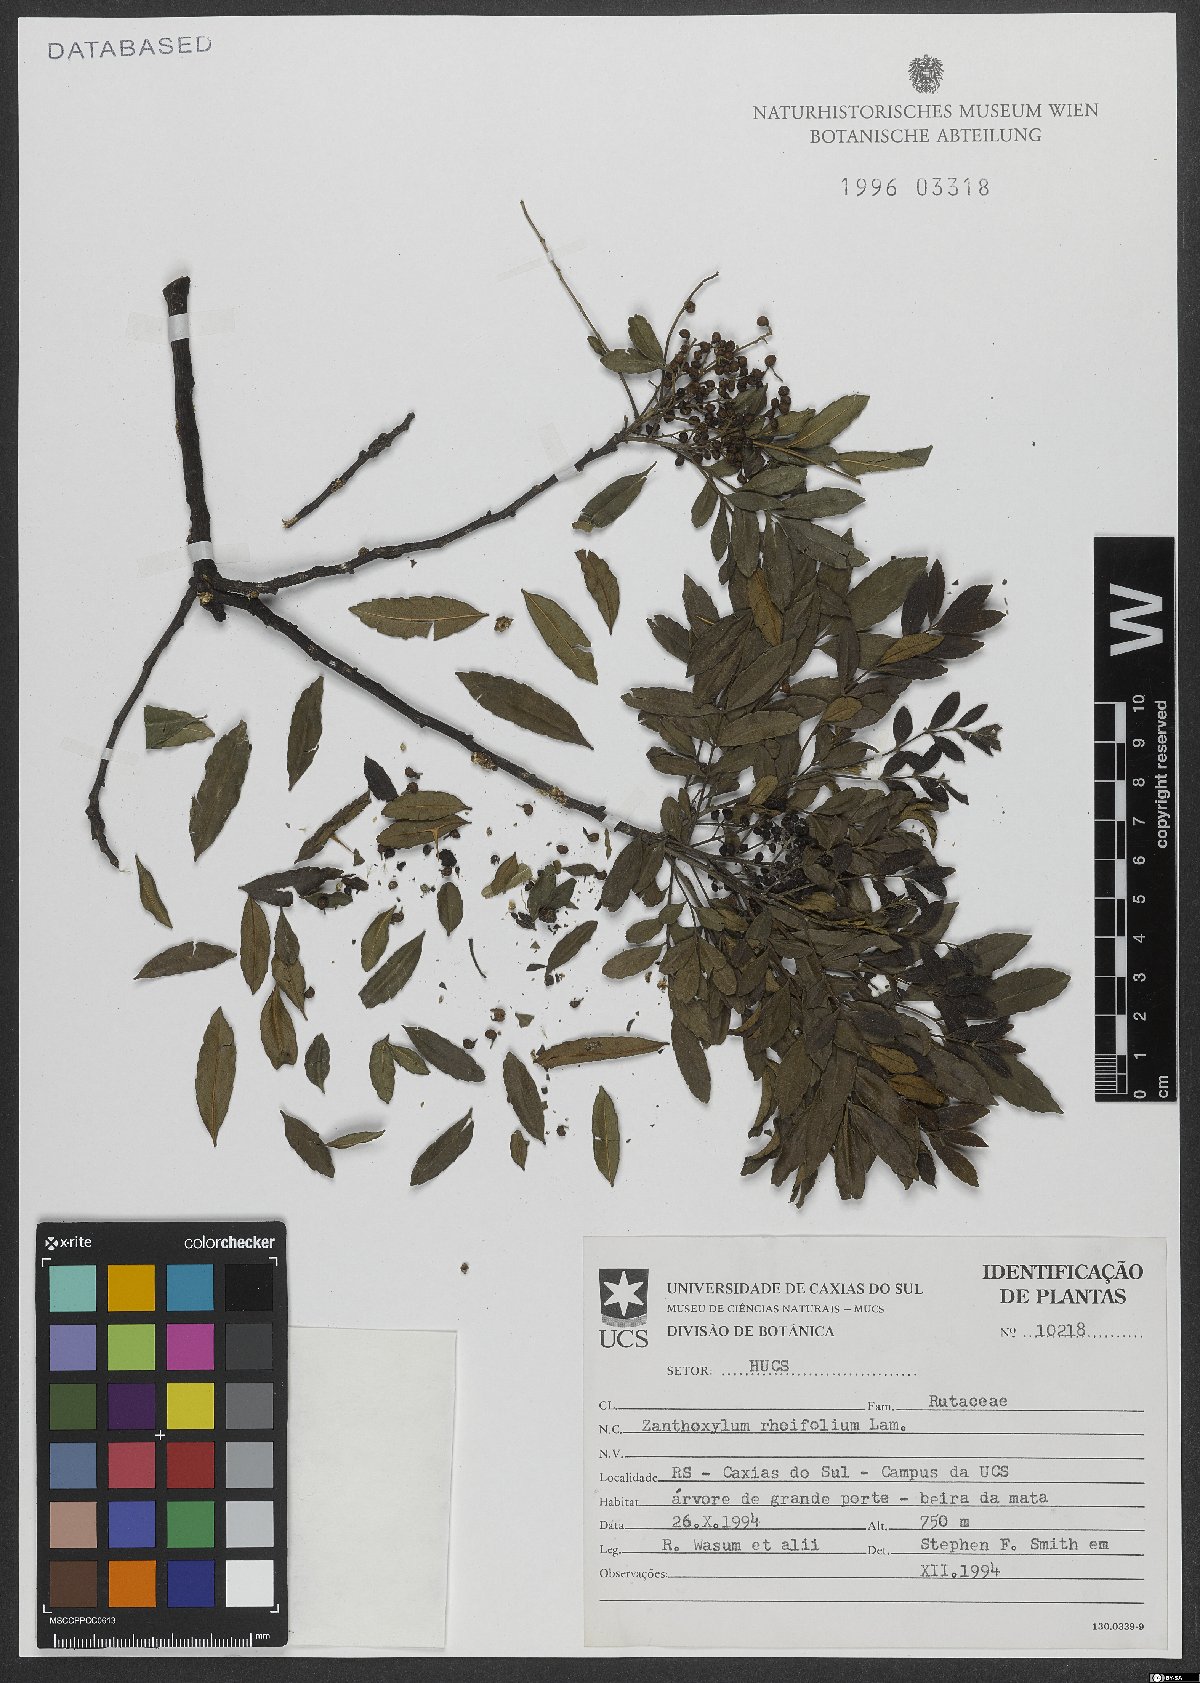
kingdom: Plantae
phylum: Tracheophyta
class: Magnoliopsida
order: Sapindales
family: Rutaceae
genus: Zanthoxylum
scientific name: Zanthoxylum rhoifolium
